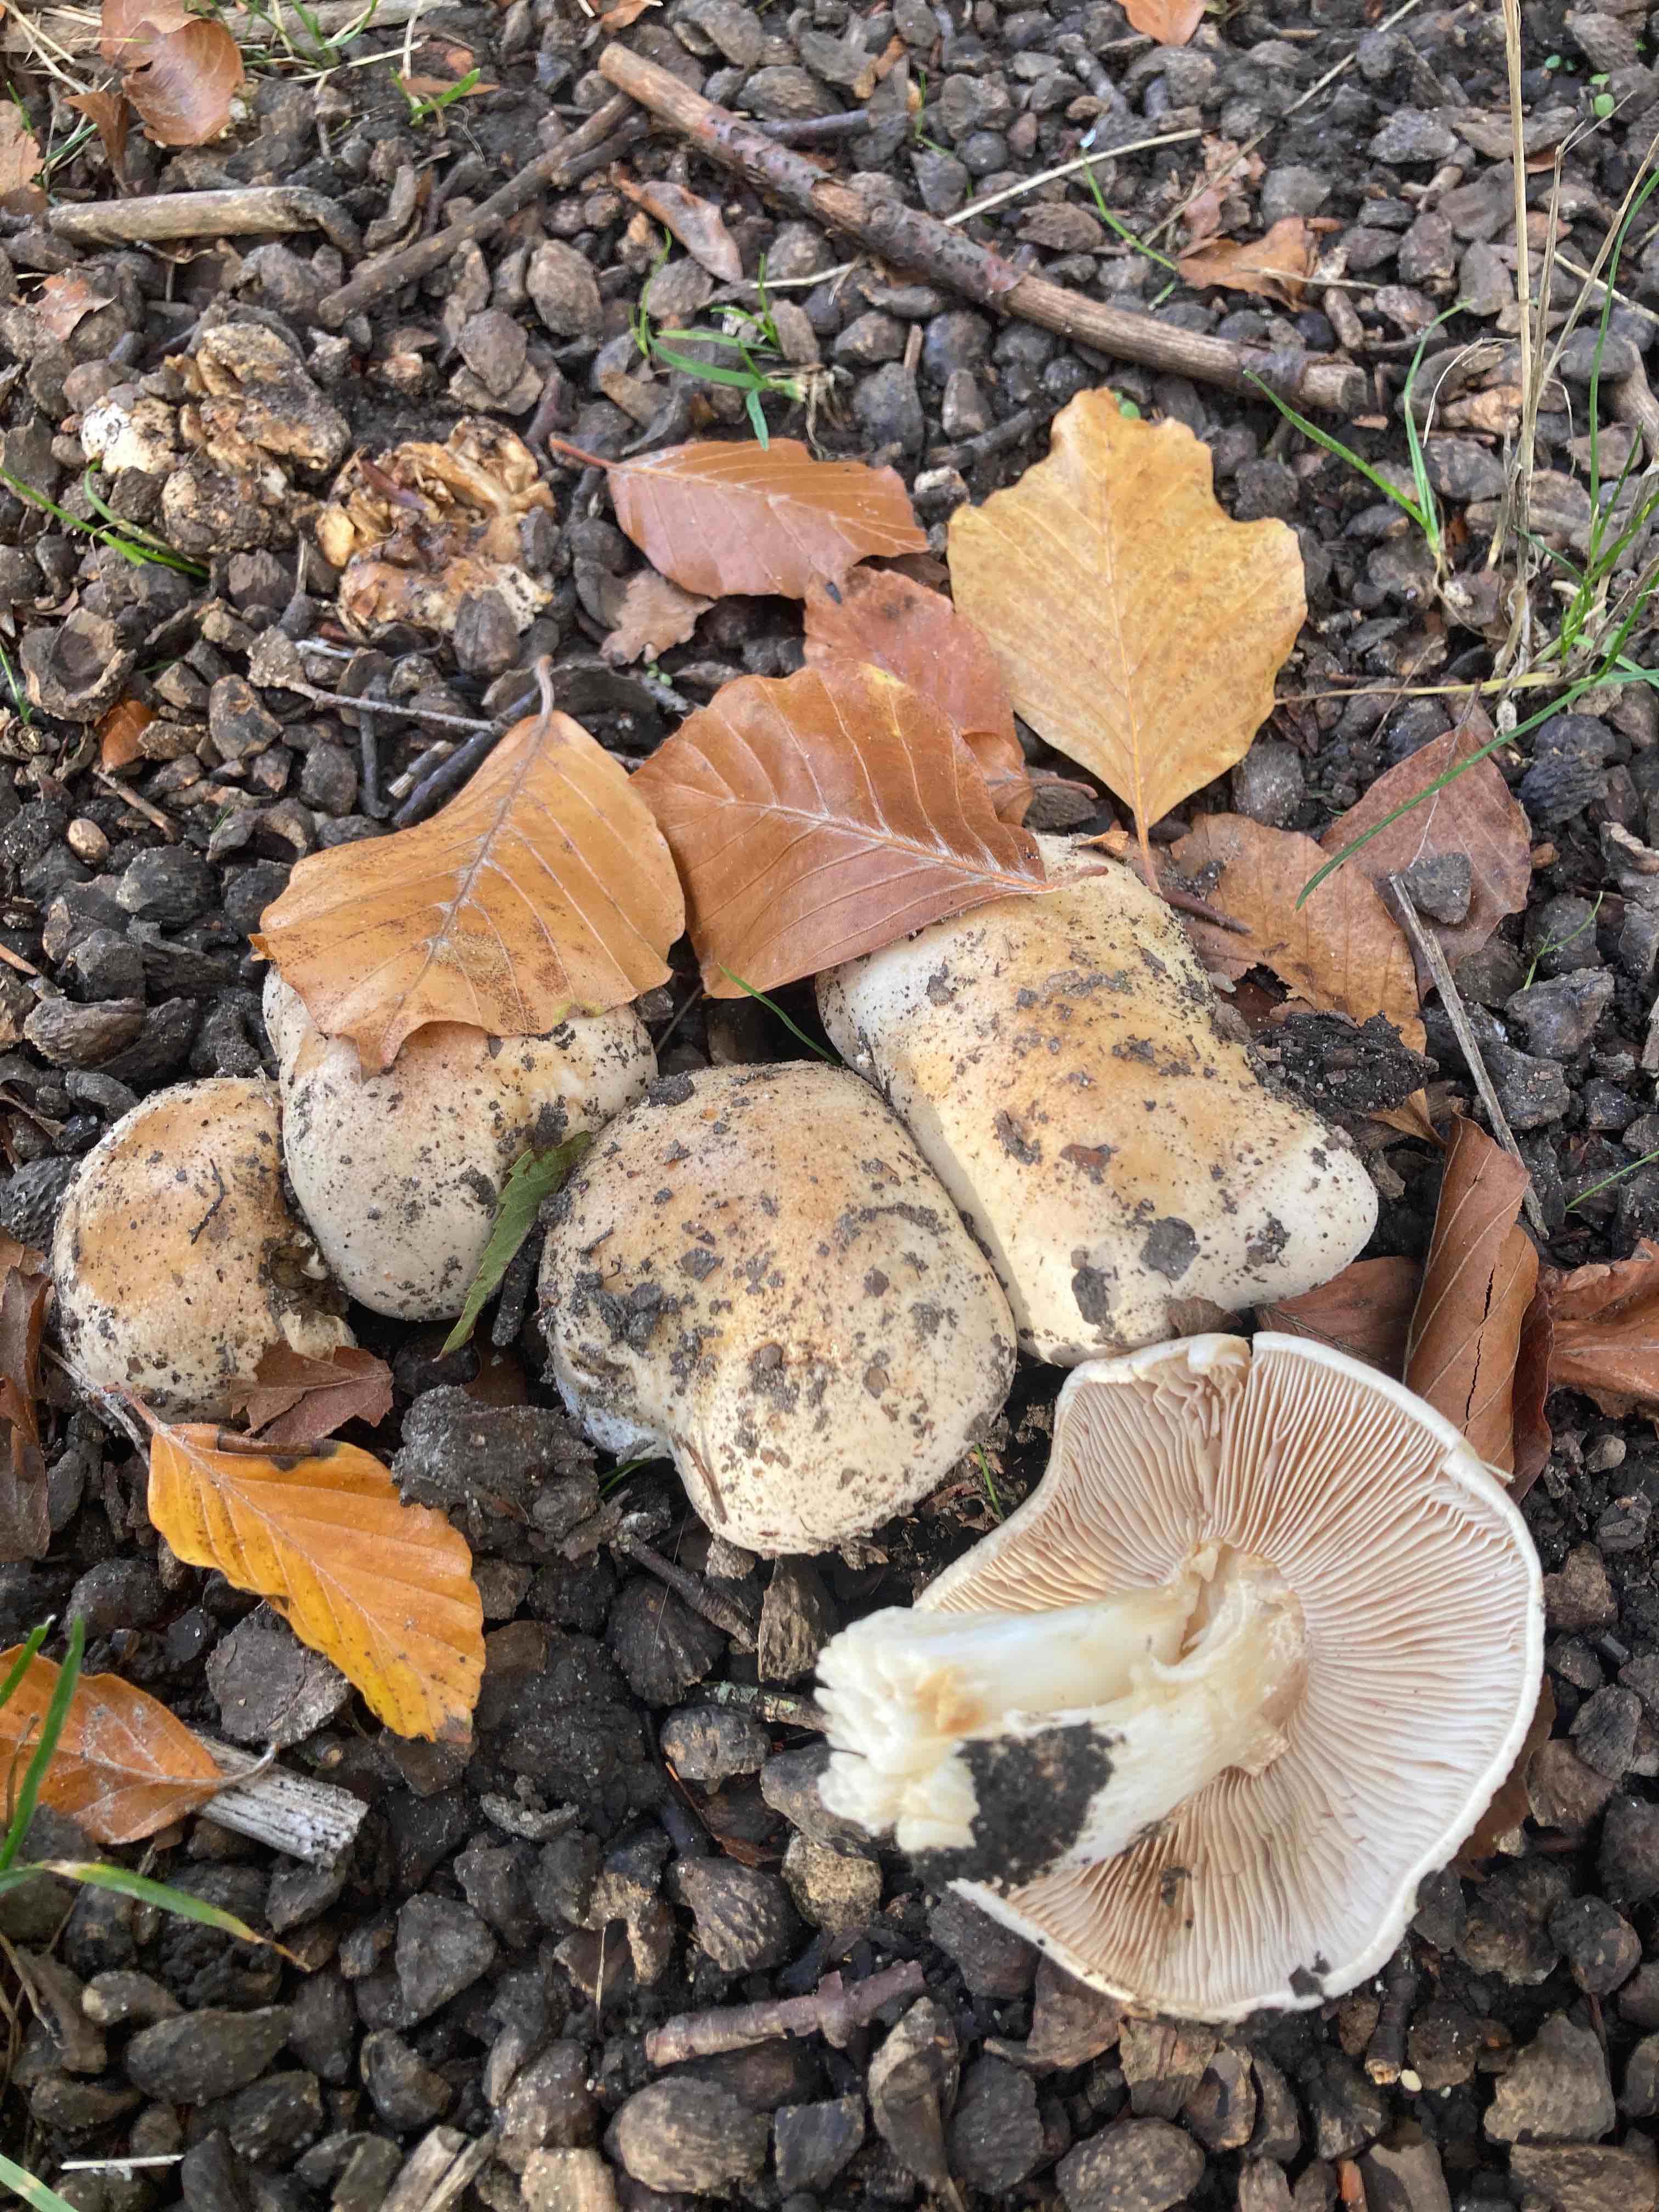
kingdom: Fungi
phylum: Basidiomycota
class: Agaricomycetes
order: Agaricales
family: Hymenogastraceae
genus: Hebeloma
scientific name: Hebeloma sinapizans
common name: ræddike-tåreblad
